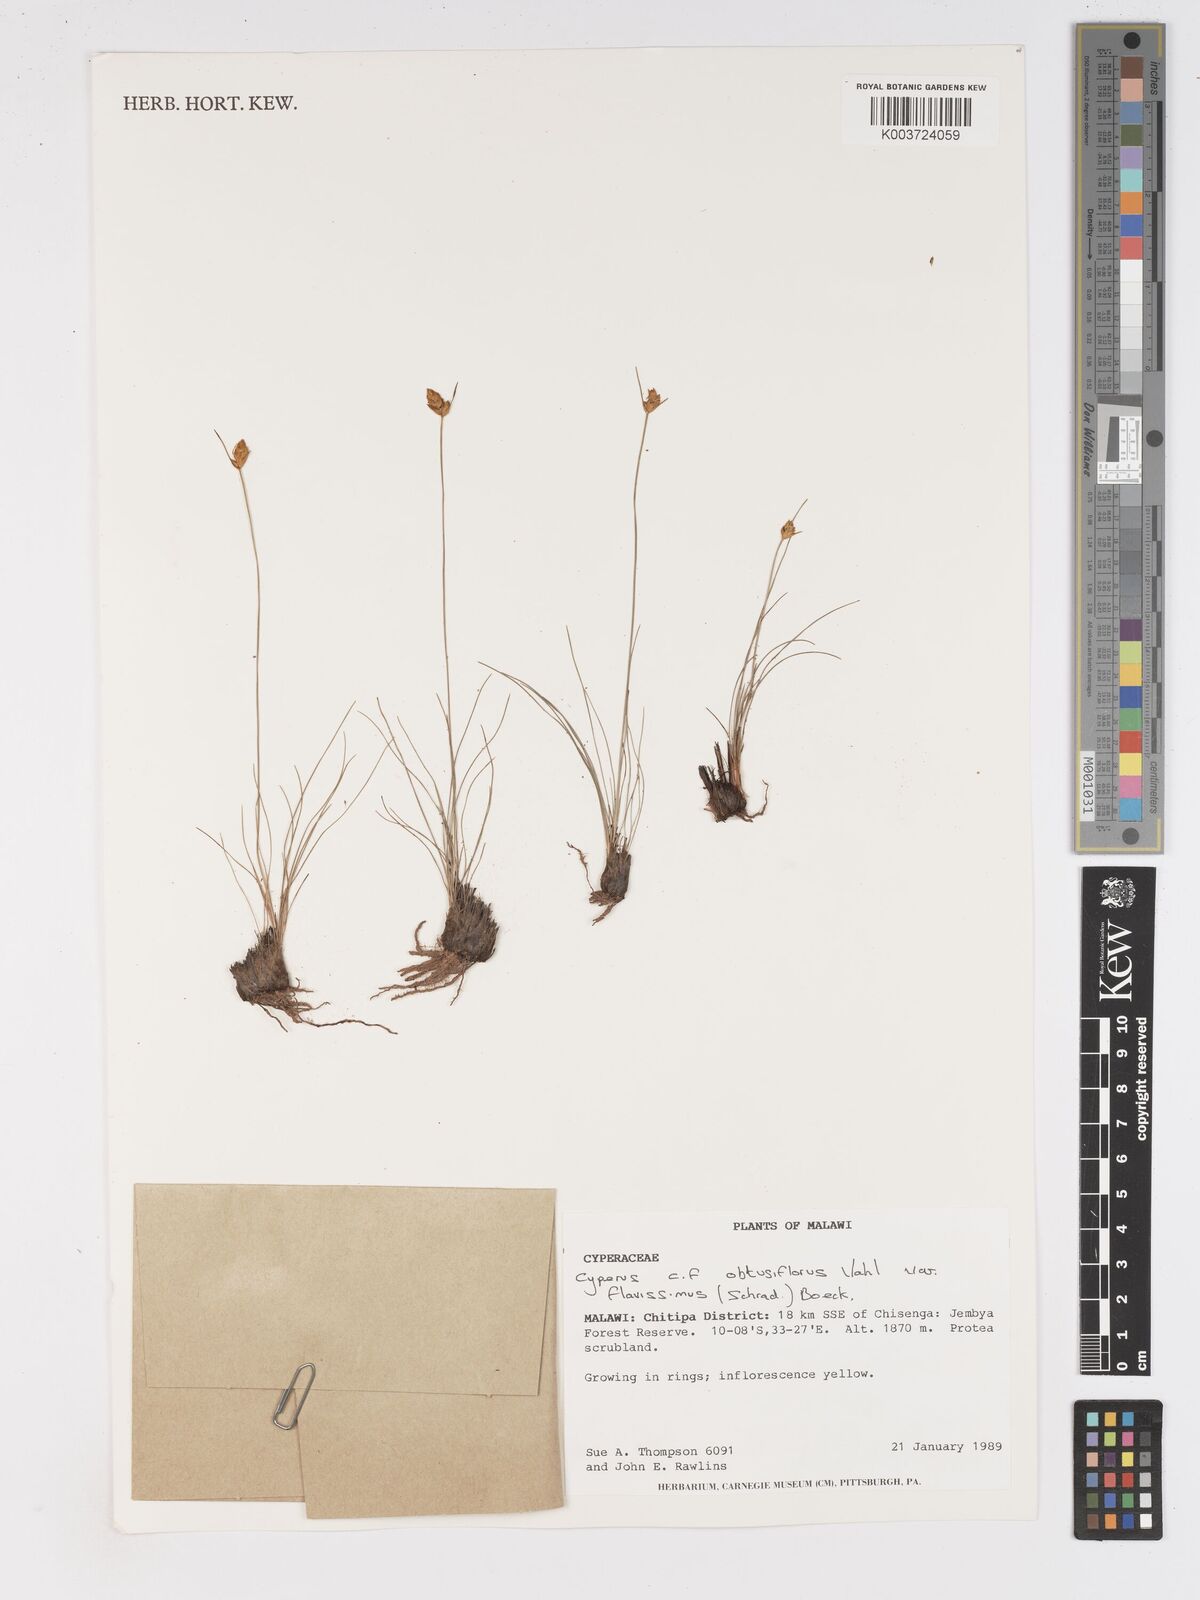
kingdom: Plantae
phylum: Tracheophyta
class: Liliopsida
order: Poales
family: Cyperaceae
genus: Cyperus
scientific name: Cyperus niveus
